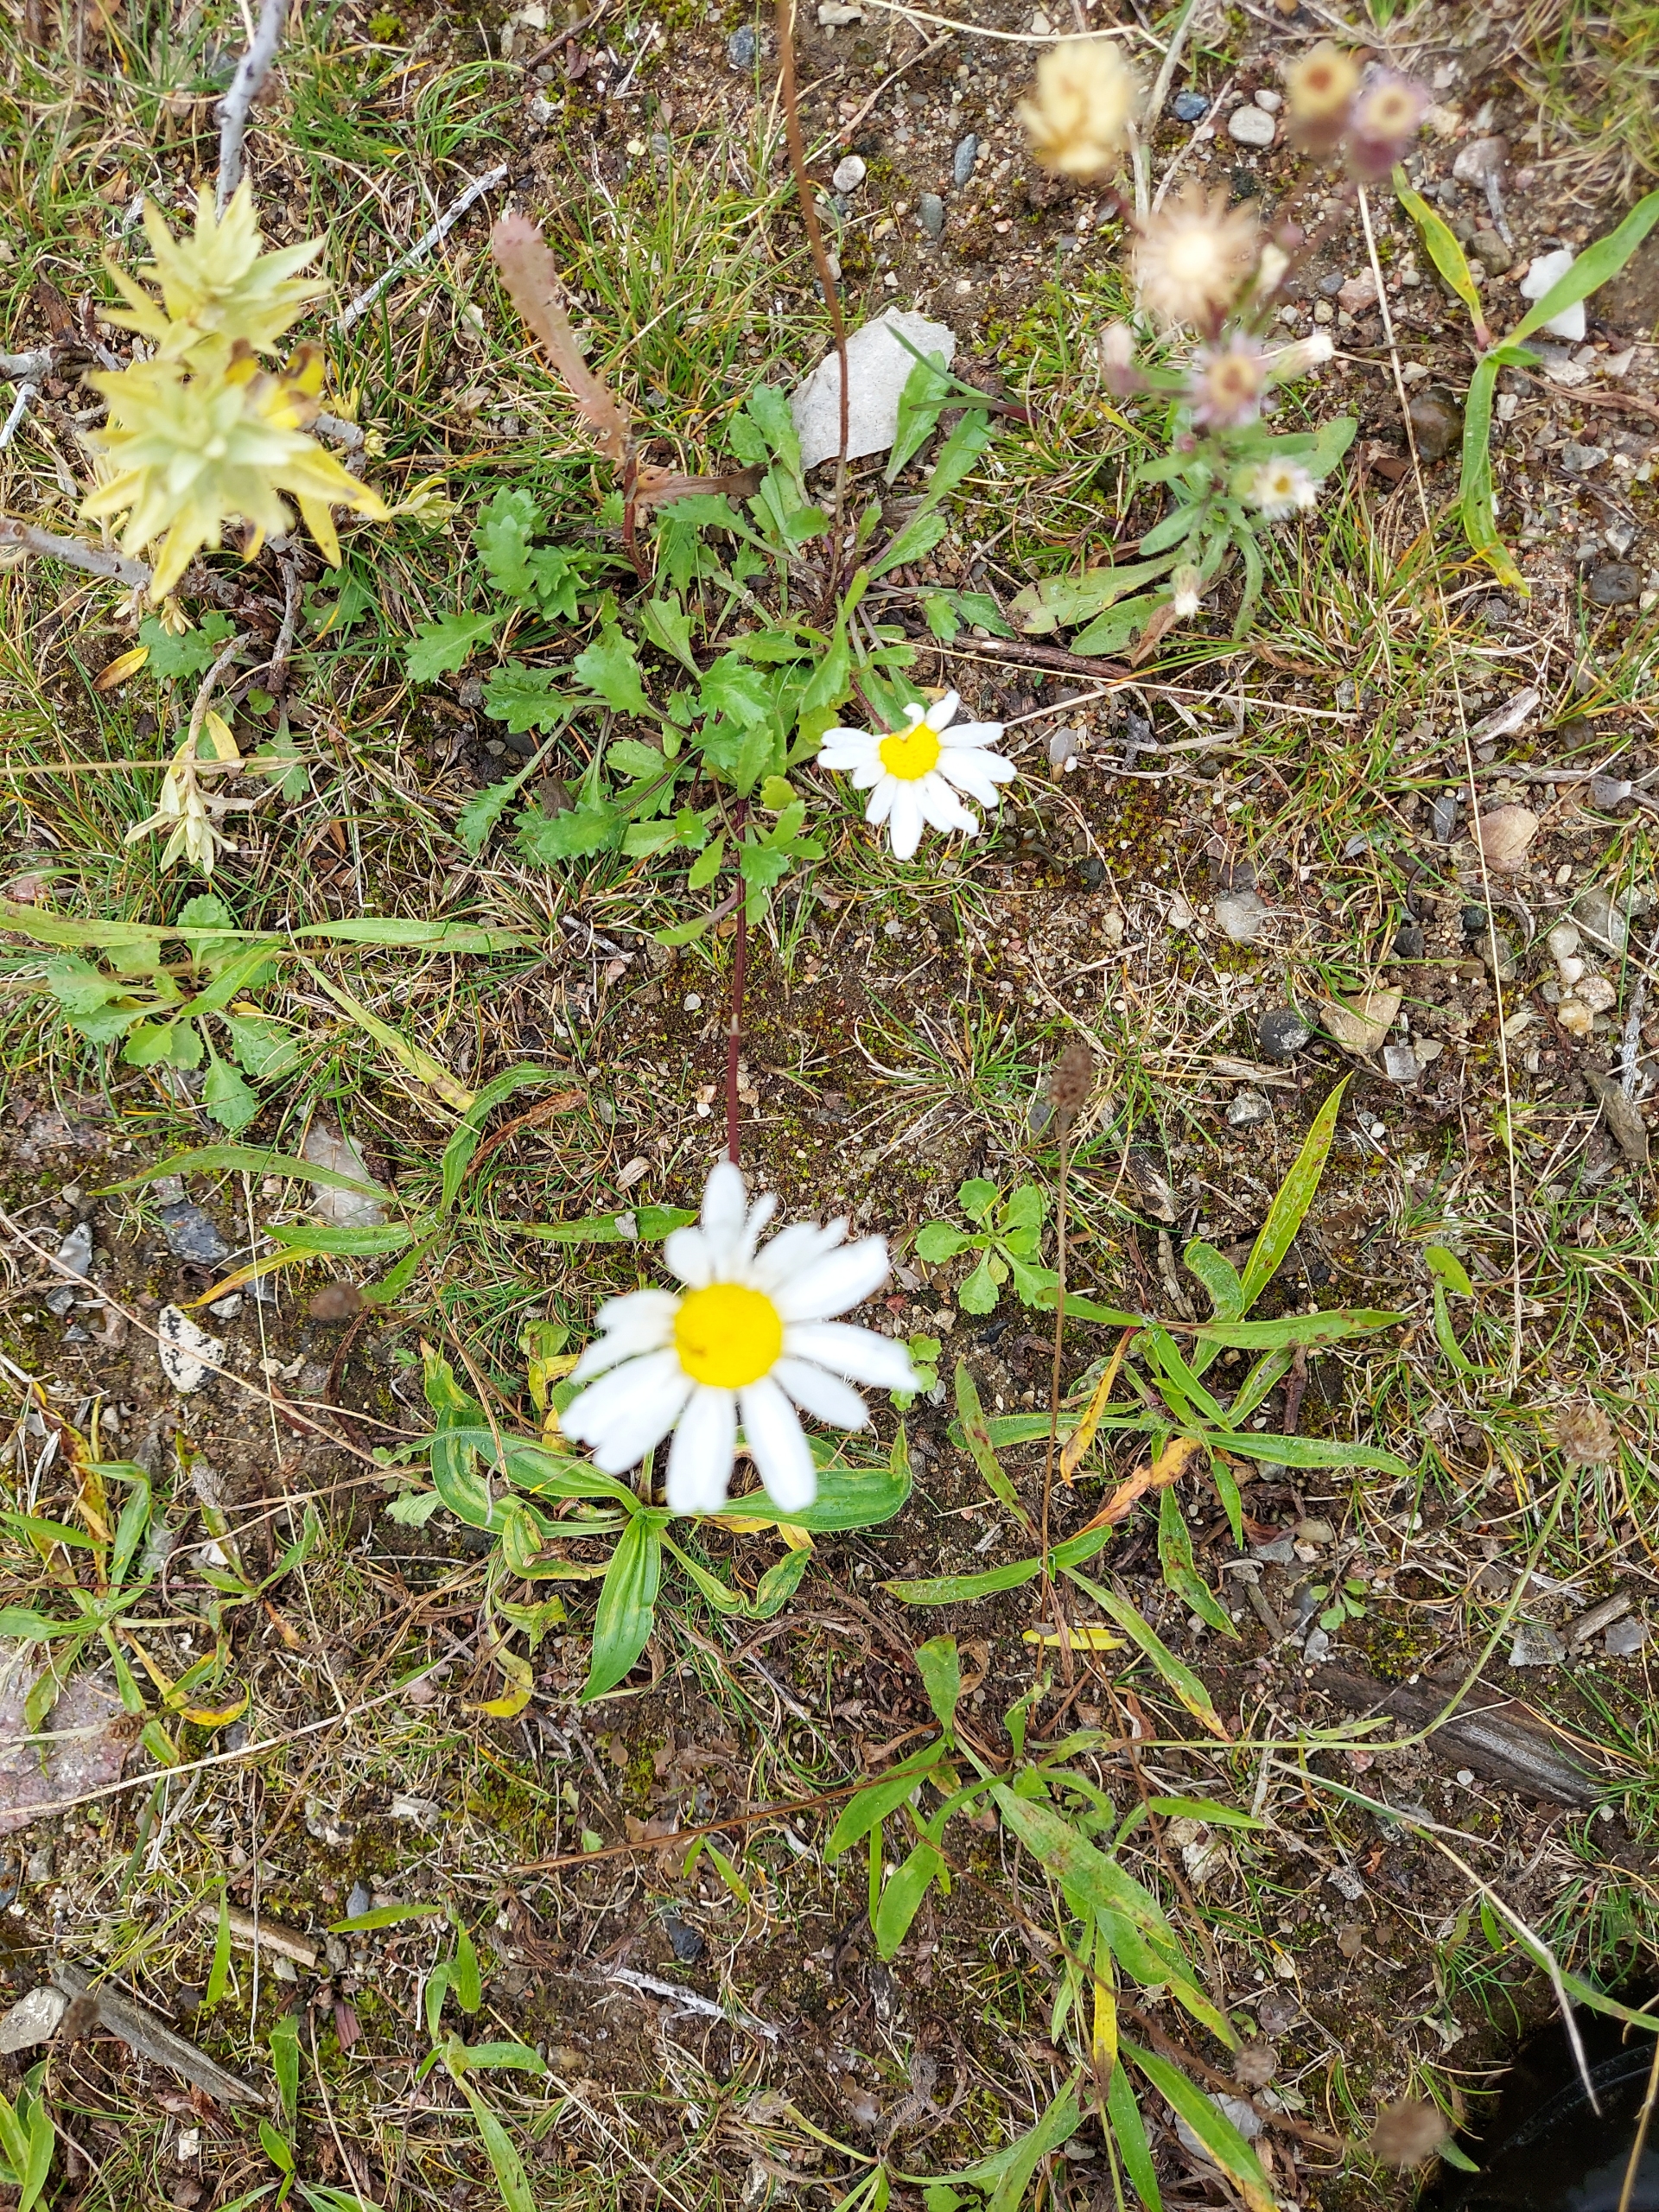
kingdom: Plantae
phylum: Tracheophyta
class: Magnoliopsida
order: Asterales
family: Asteraceae
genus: Leucanthemum
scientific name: Leucanthemum vulgare
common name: Hvid okseøje
